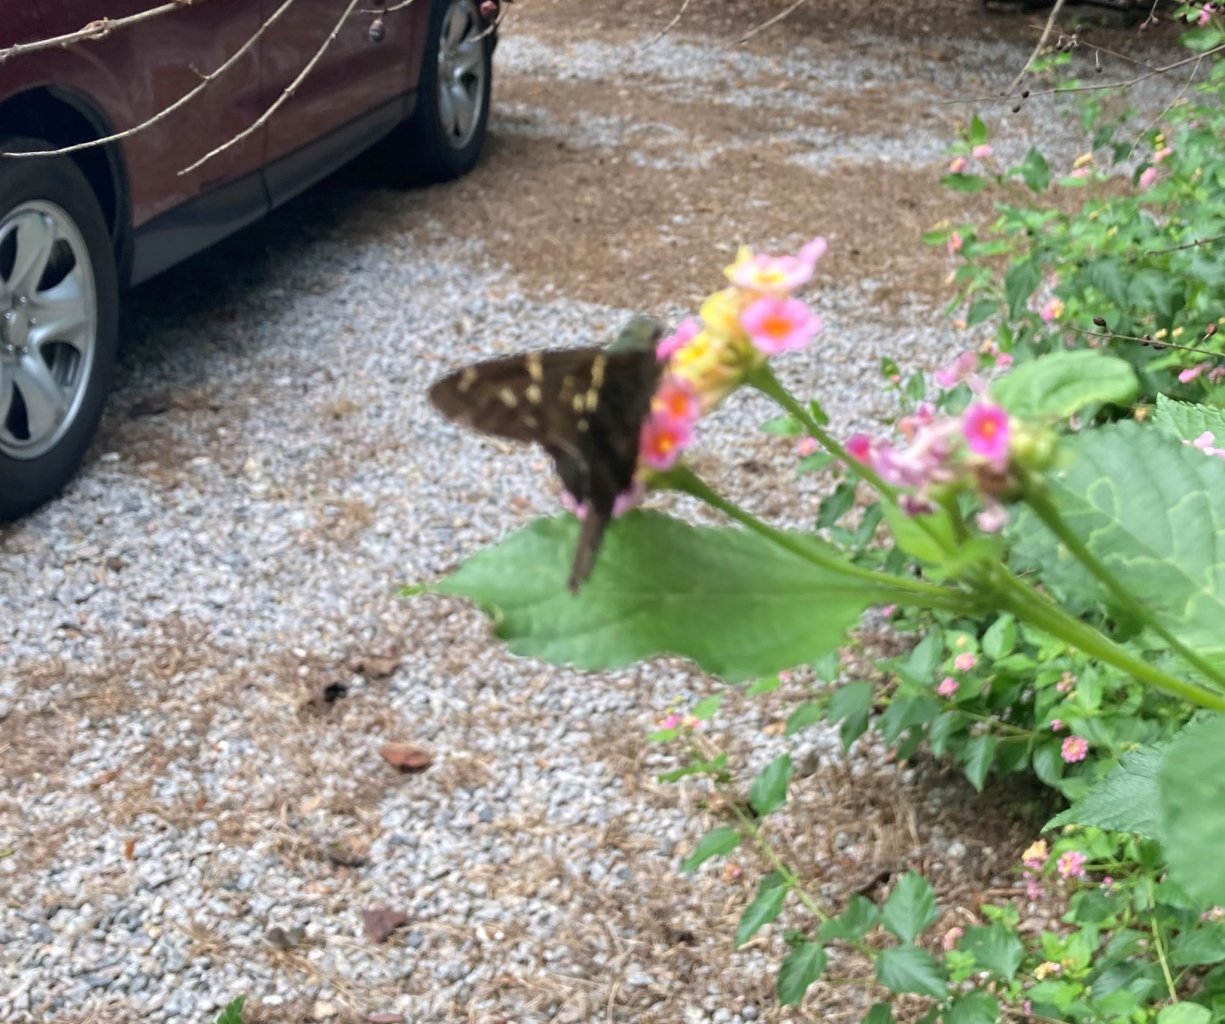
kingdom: Animalia
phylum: Arthropoda
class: Insecta
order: Lepidoptera
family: Hesperiidae
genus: Urbanus
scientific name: Urbanus proteus
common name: Long-tailed Skipper
